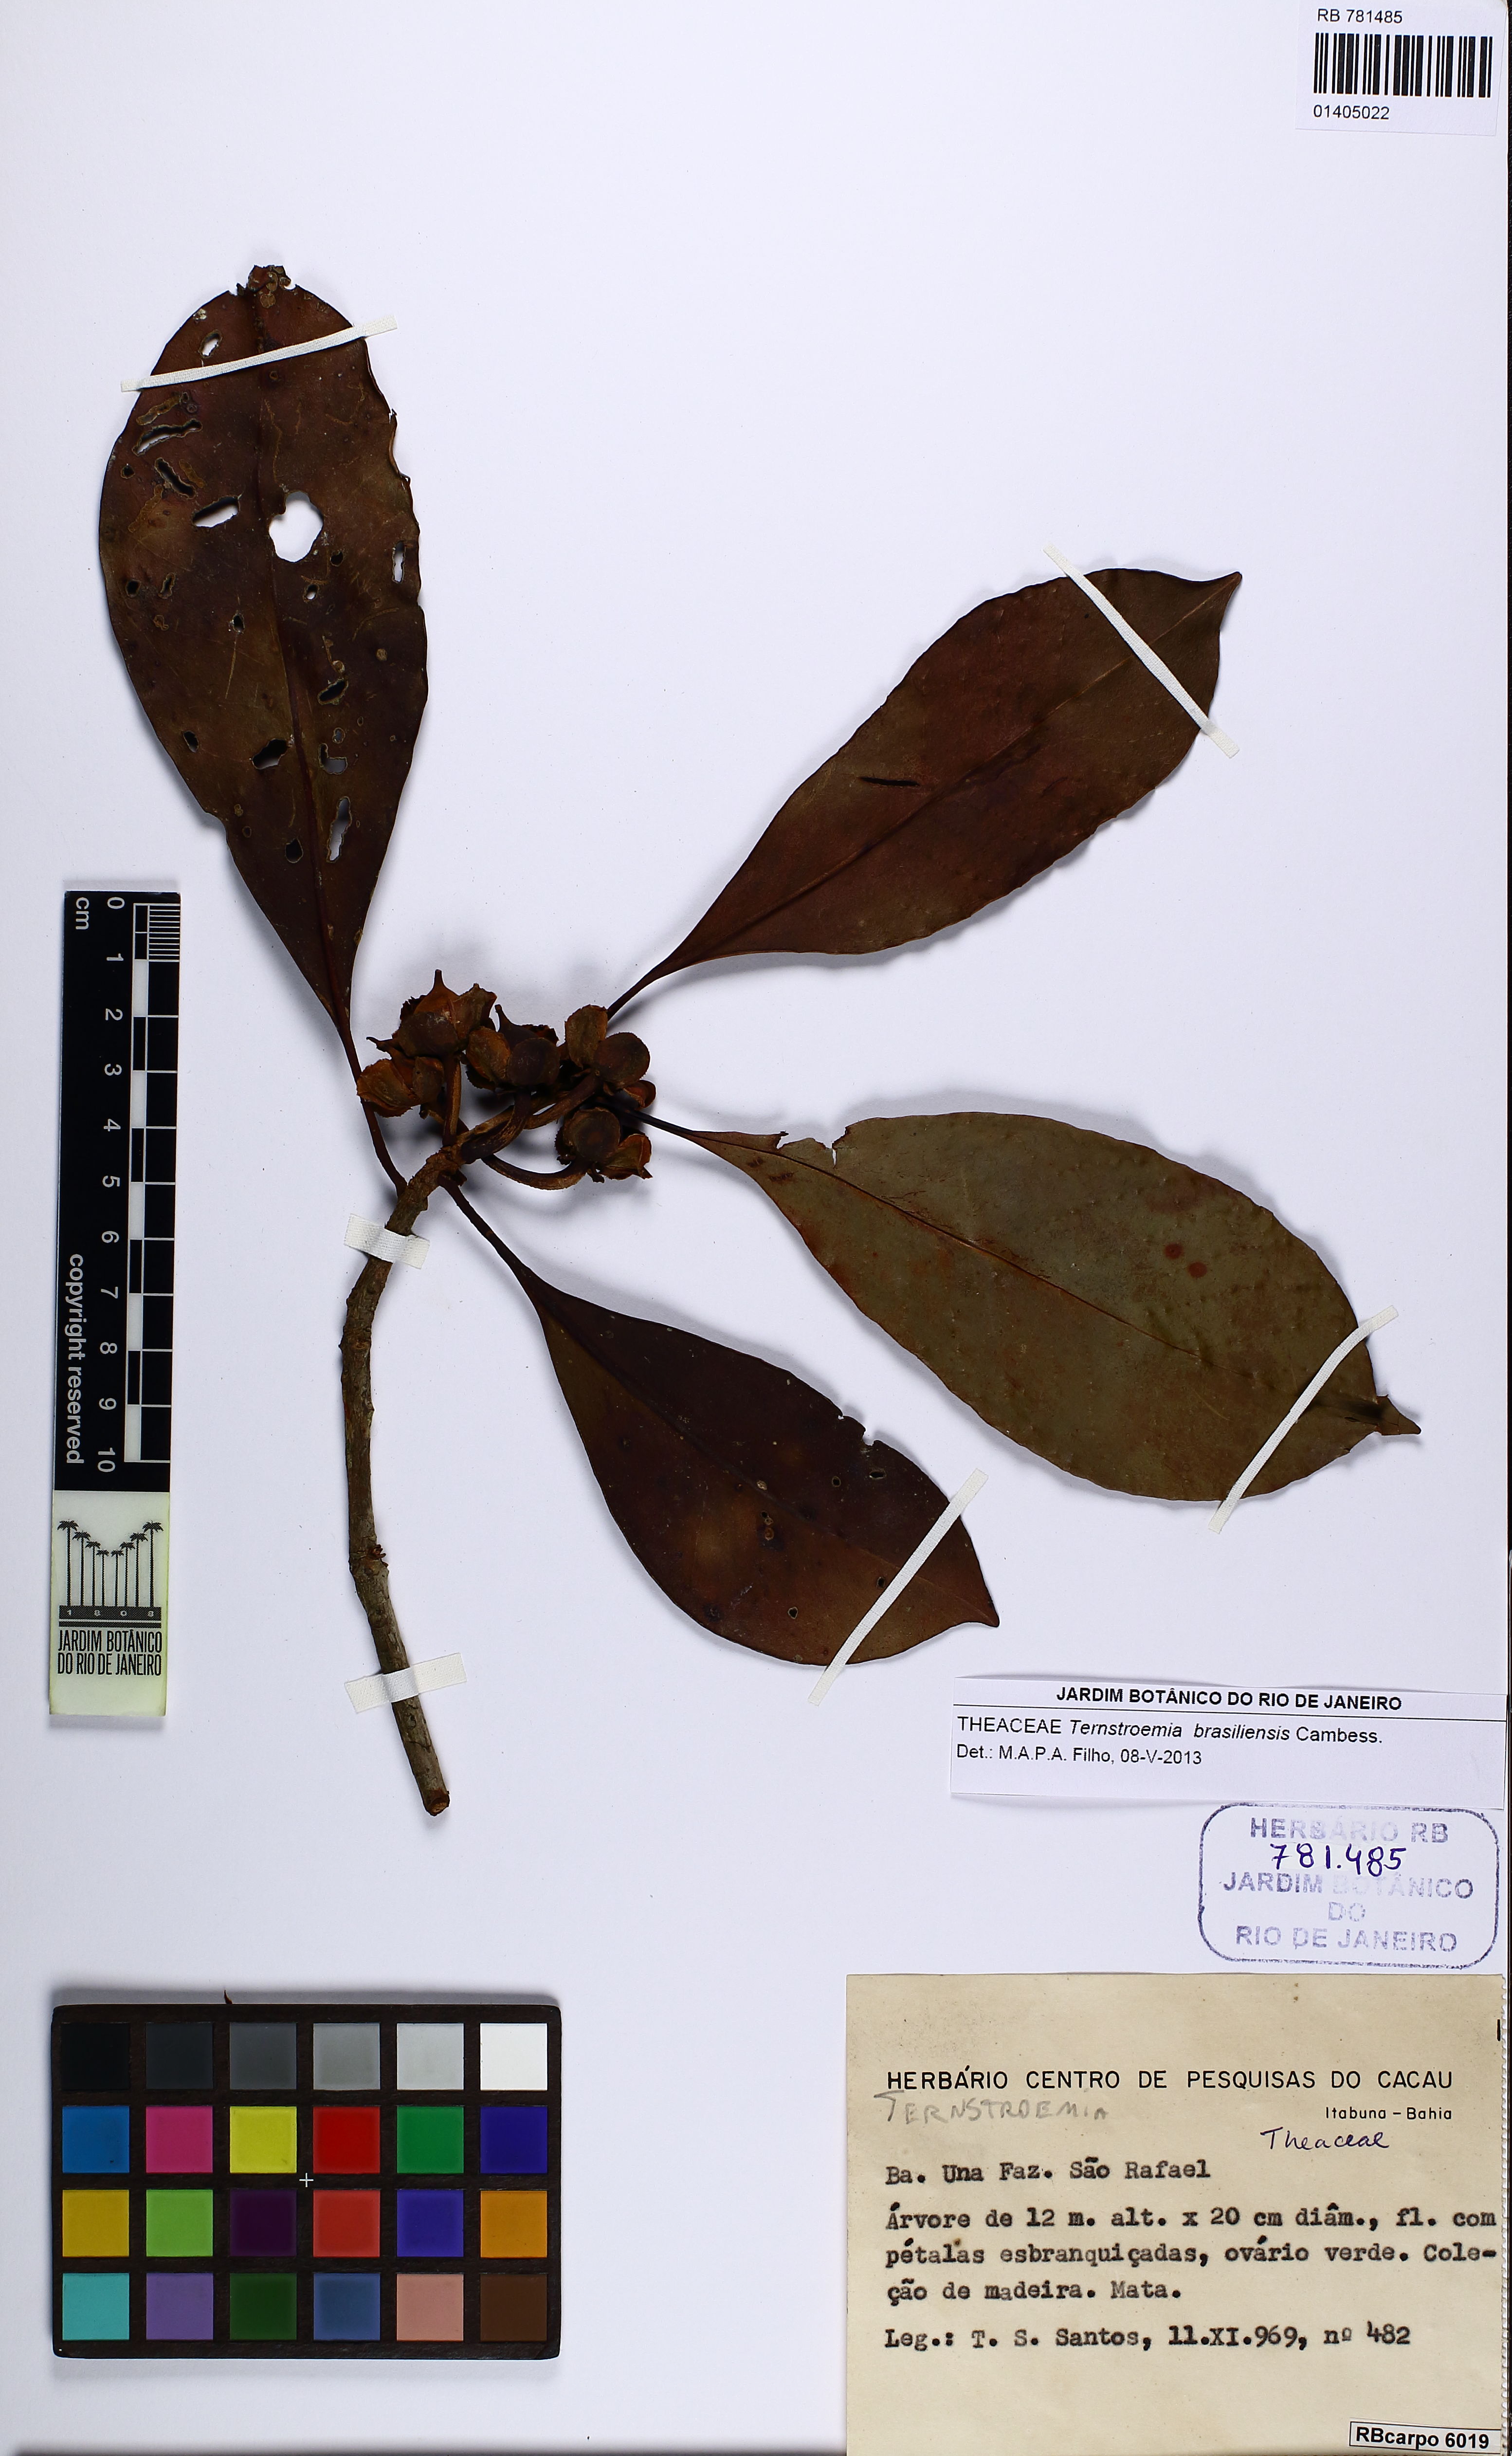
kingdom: Plantae
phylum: Tracheophyta
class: Magnoliopsida
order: Ericales
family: Pentaphylacaceae
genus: Ternstroemia
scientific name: Ternstroemia brasiliensis
